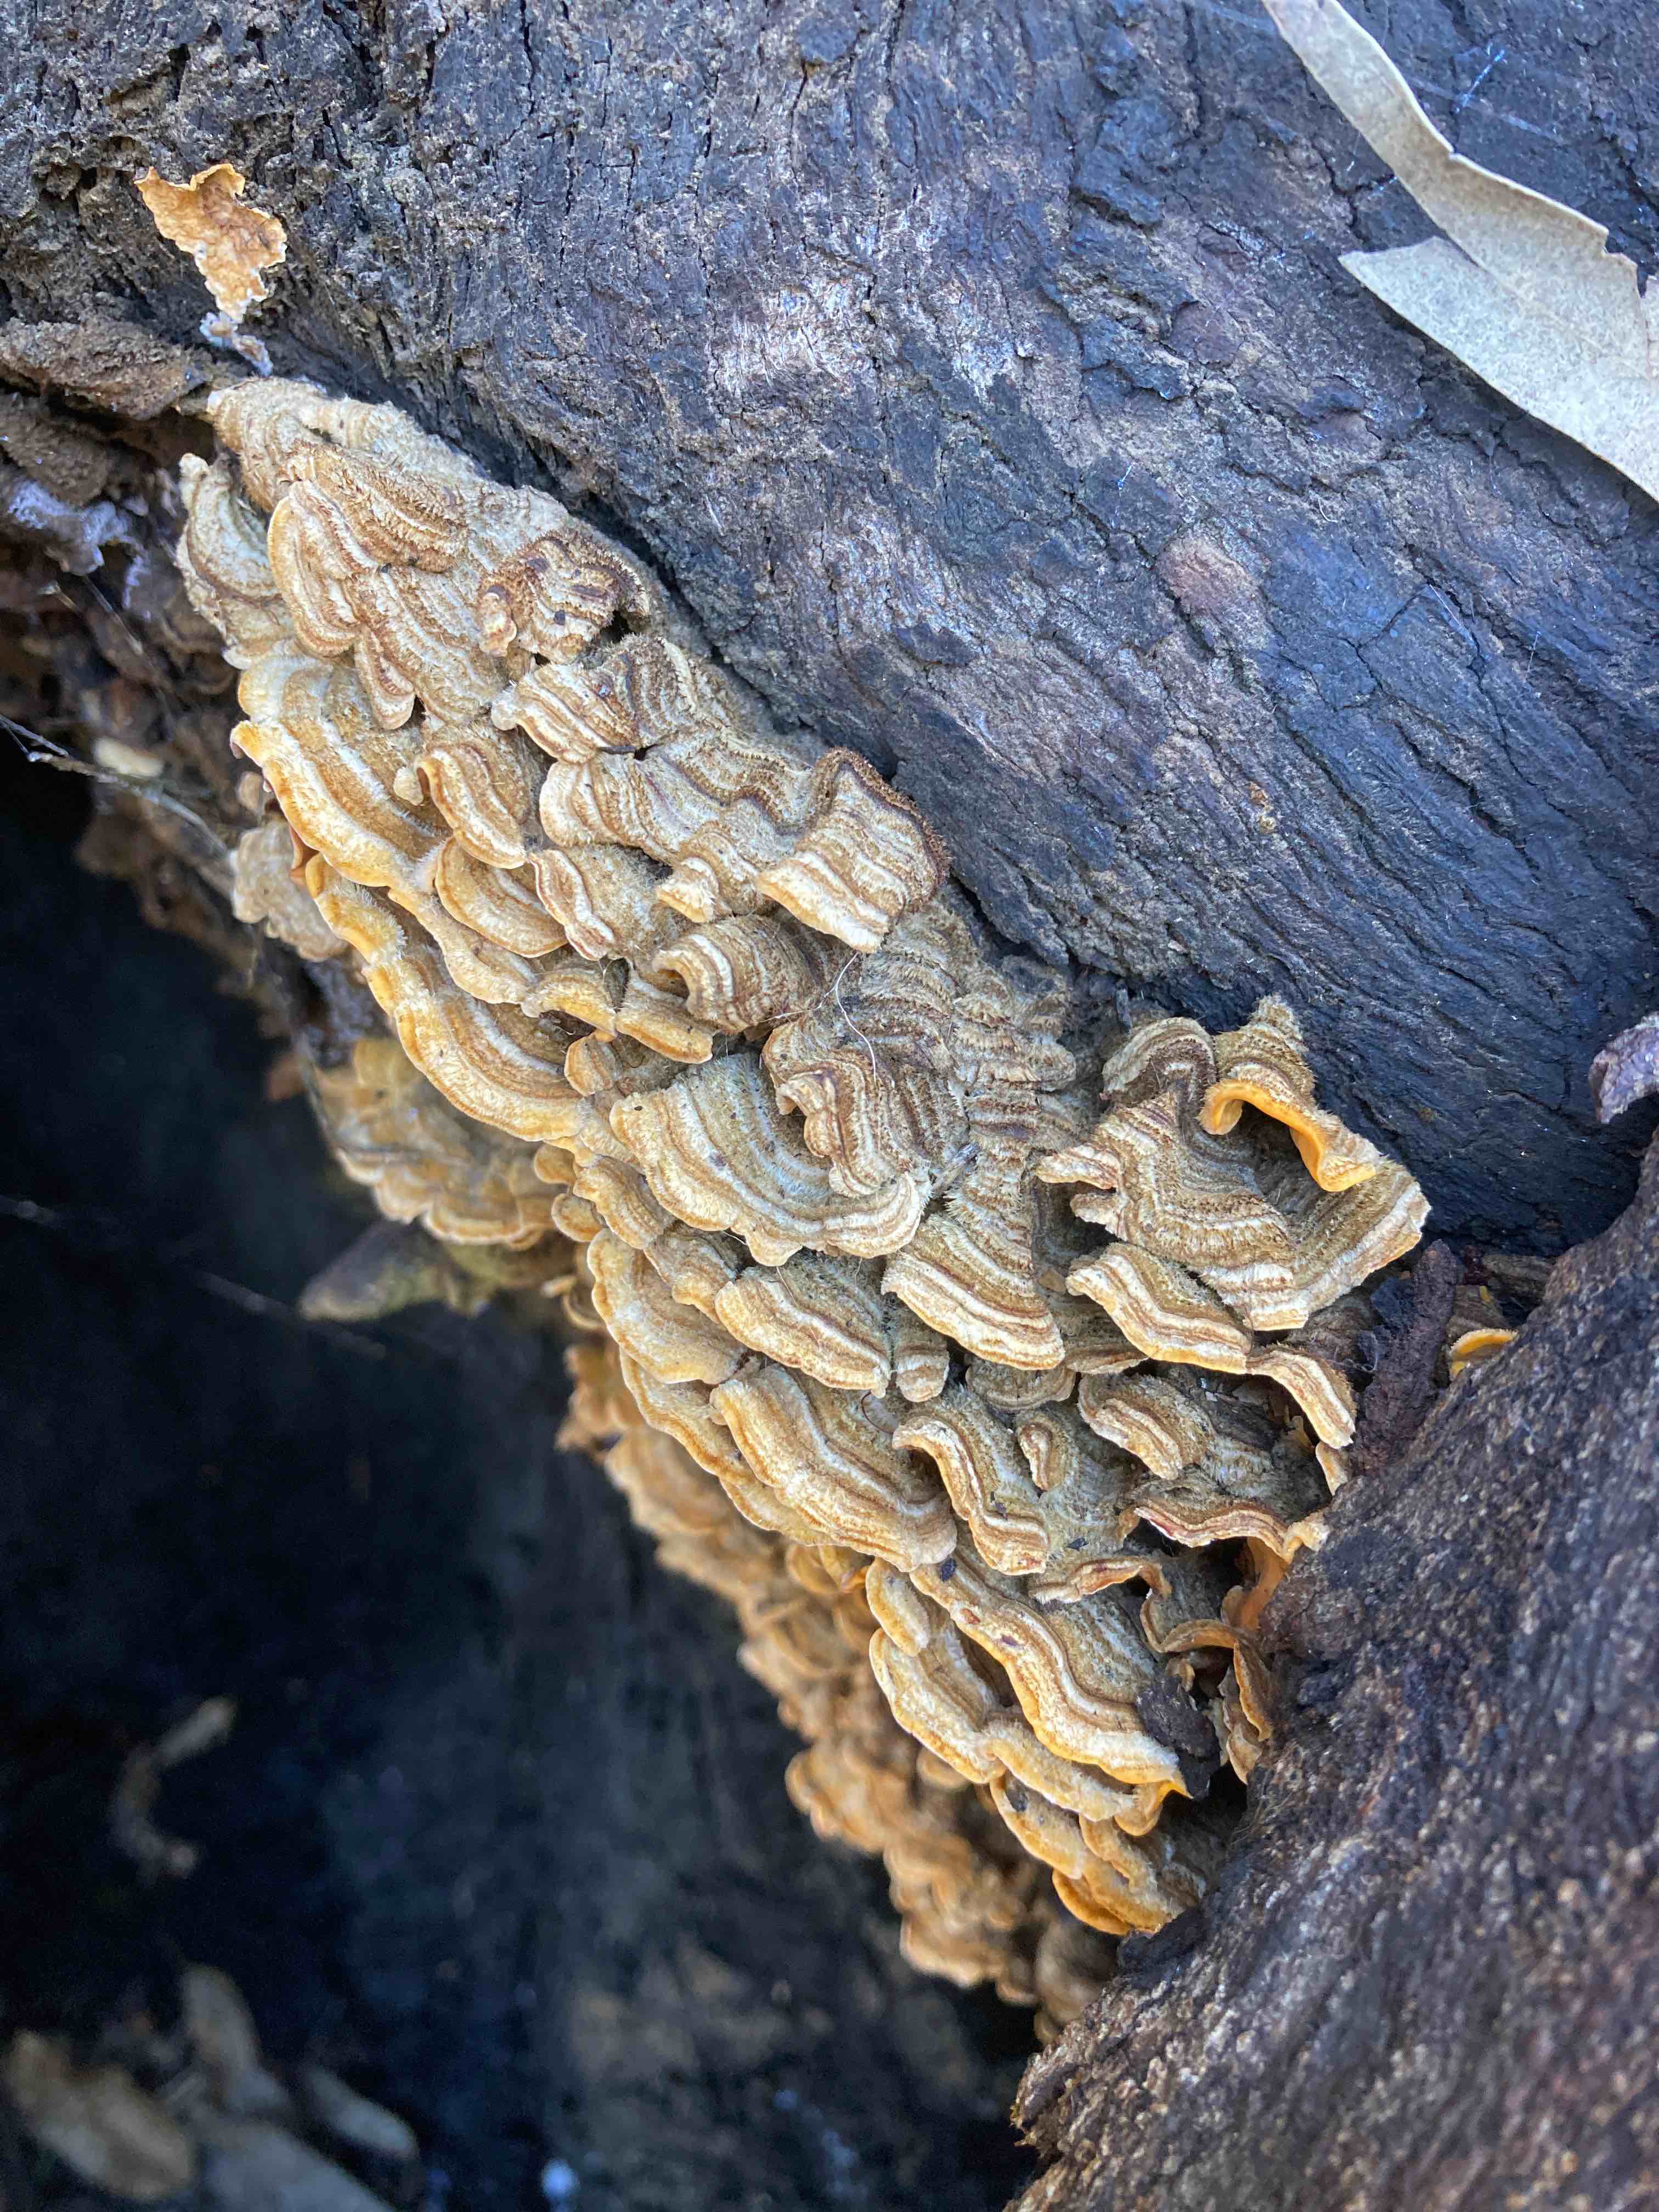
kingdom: Fungi
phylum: Basidiomycota
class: Agaricomycetes
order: Russulales
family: Stereaceae
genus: Stereum
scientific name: Stereum hirsutum
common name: håret lædersvamp
